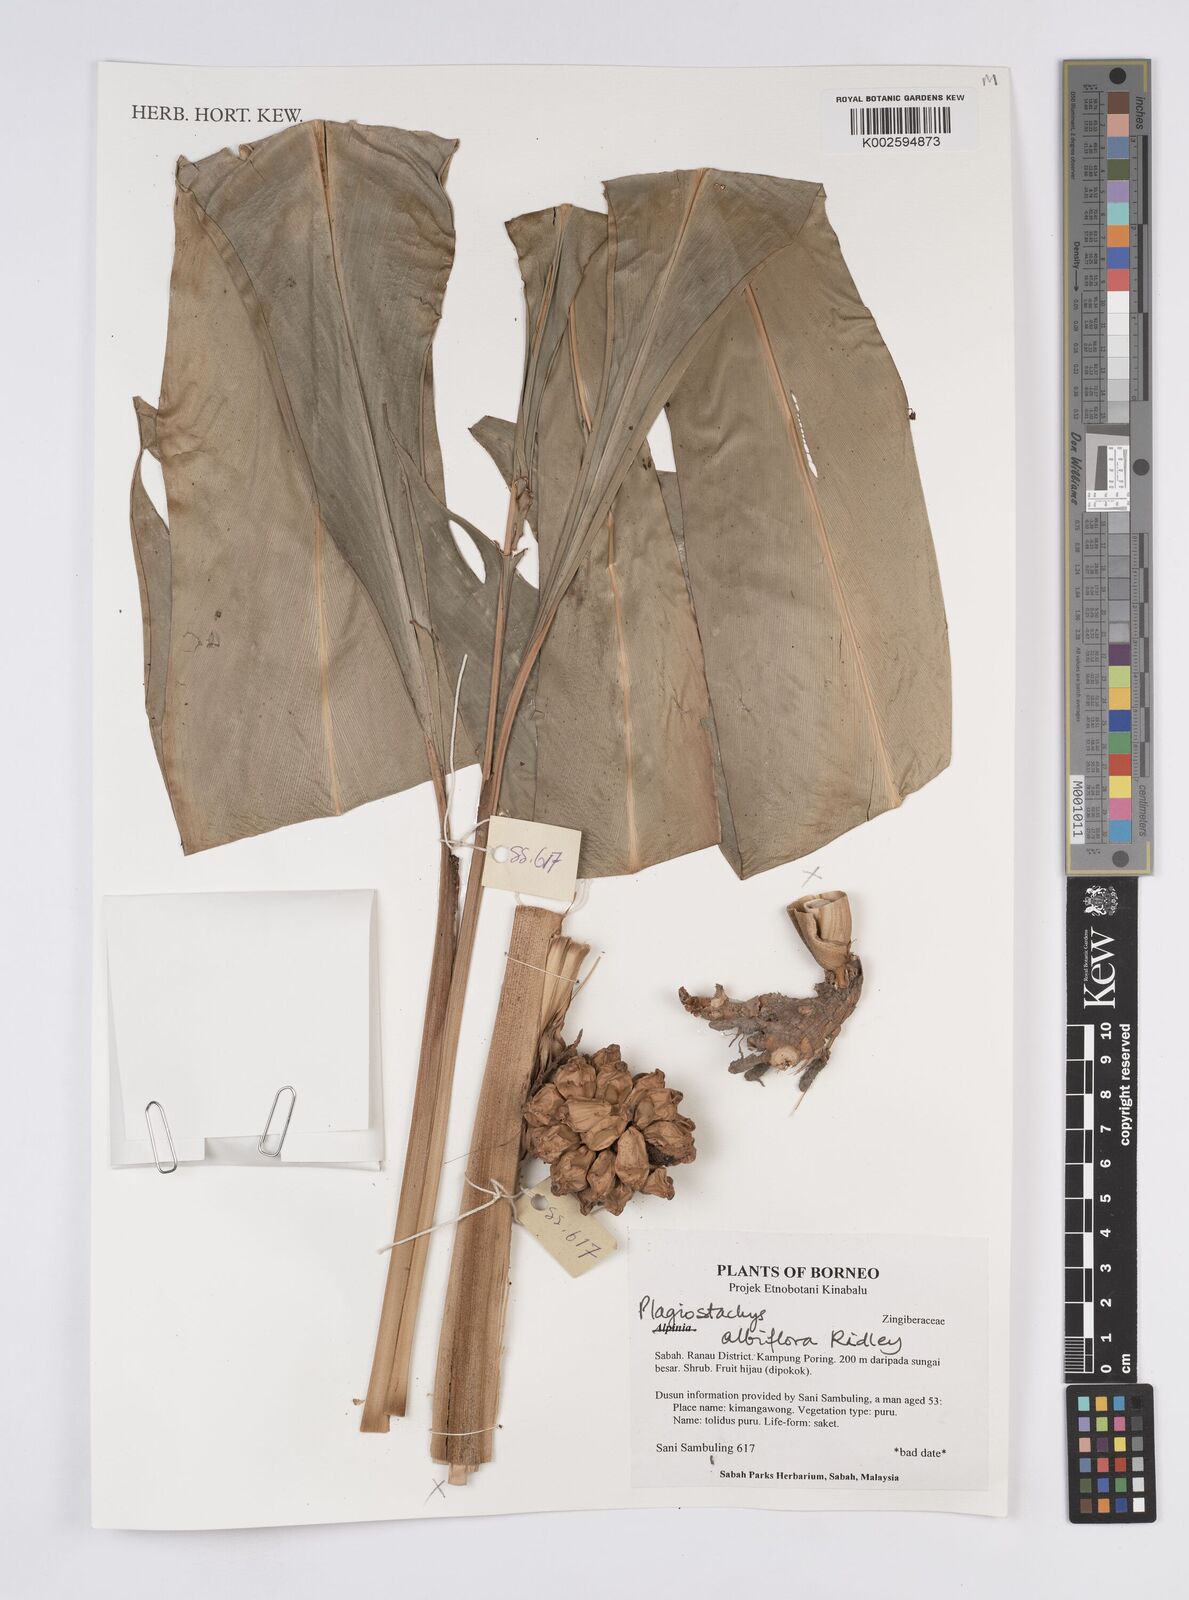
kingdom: Plantae
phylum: Tracheophyta
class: Liliopsida
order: Zingiberales
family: Zingiberaceae
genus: Plagiostachys
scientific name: Plagiostachys albiflora
